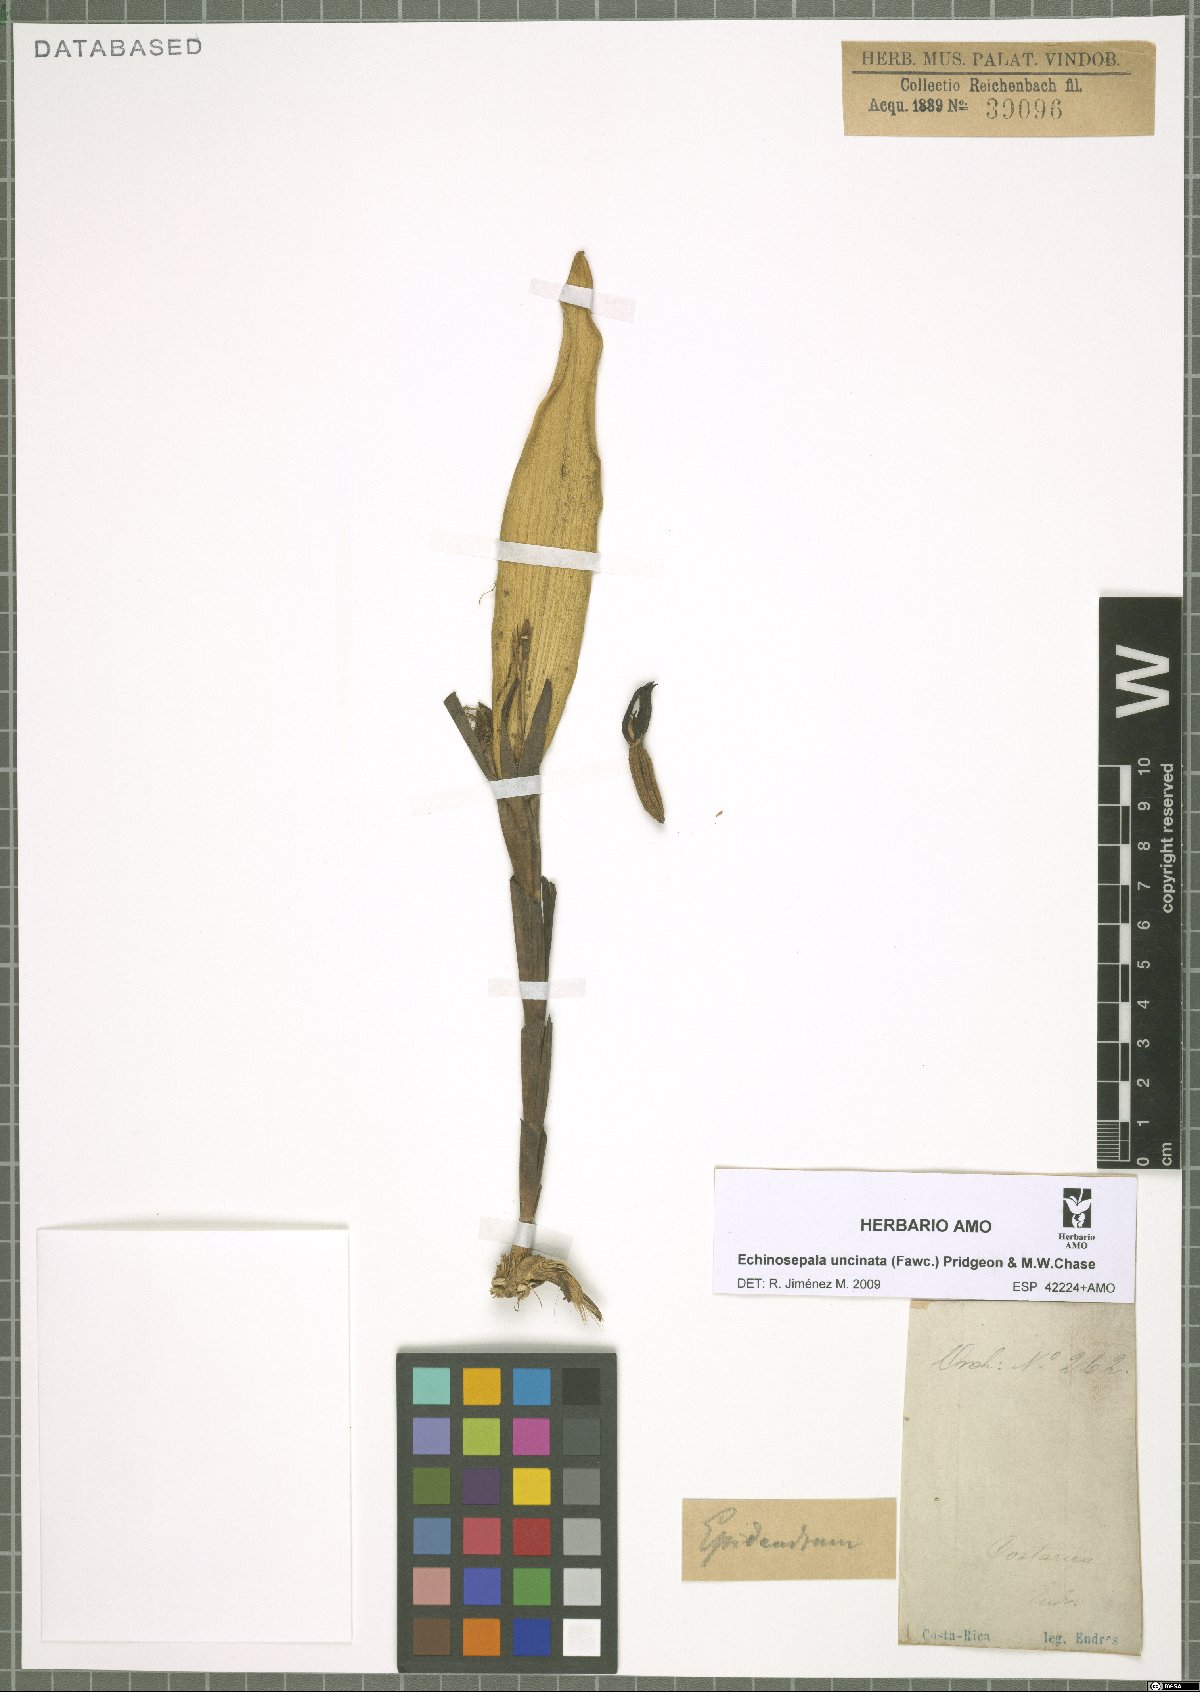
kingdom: Plantae
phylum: Tracheophyta
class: Liliopsida
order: Asparagales
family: Orchidaceae
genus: Echinosepala
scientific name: Echinosepala uncinata
